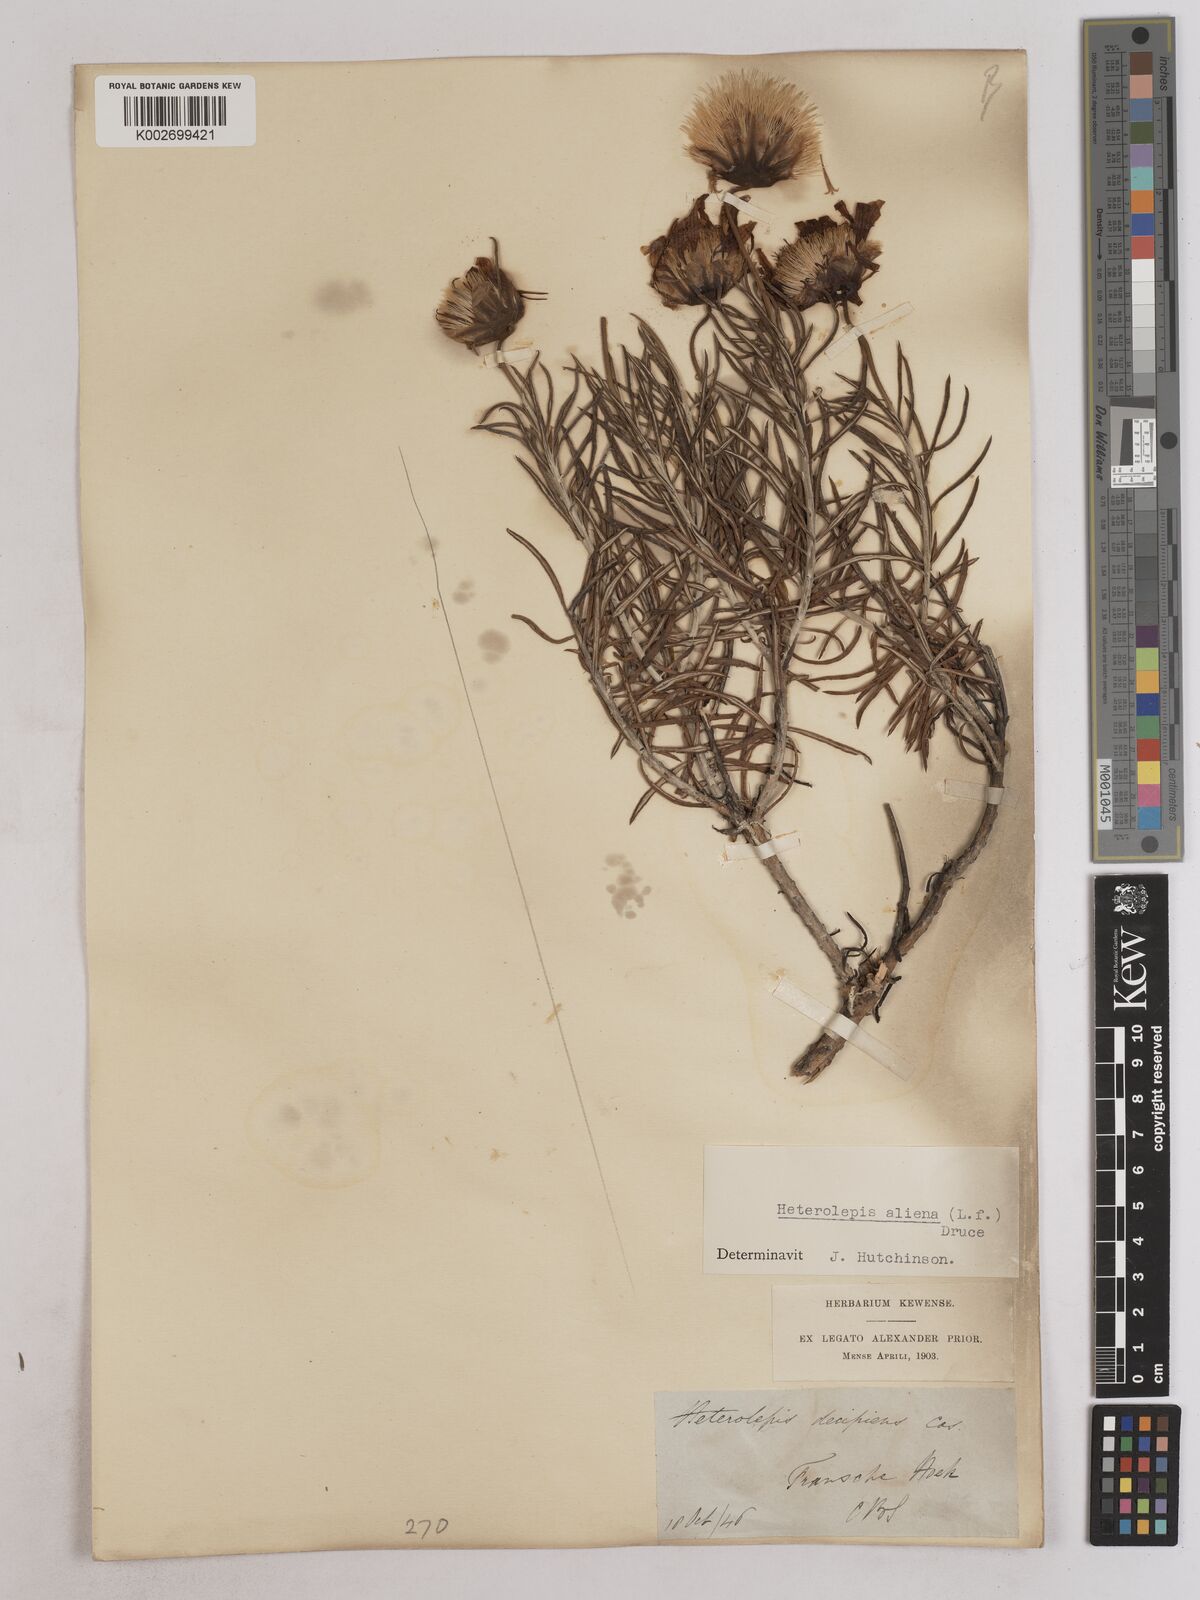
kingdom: Plantae
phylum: Tracheophyta
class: Magnoliopsida
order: Asterales
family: Asteraceae
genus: Heterolepis
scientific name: Heterolepis aliena
